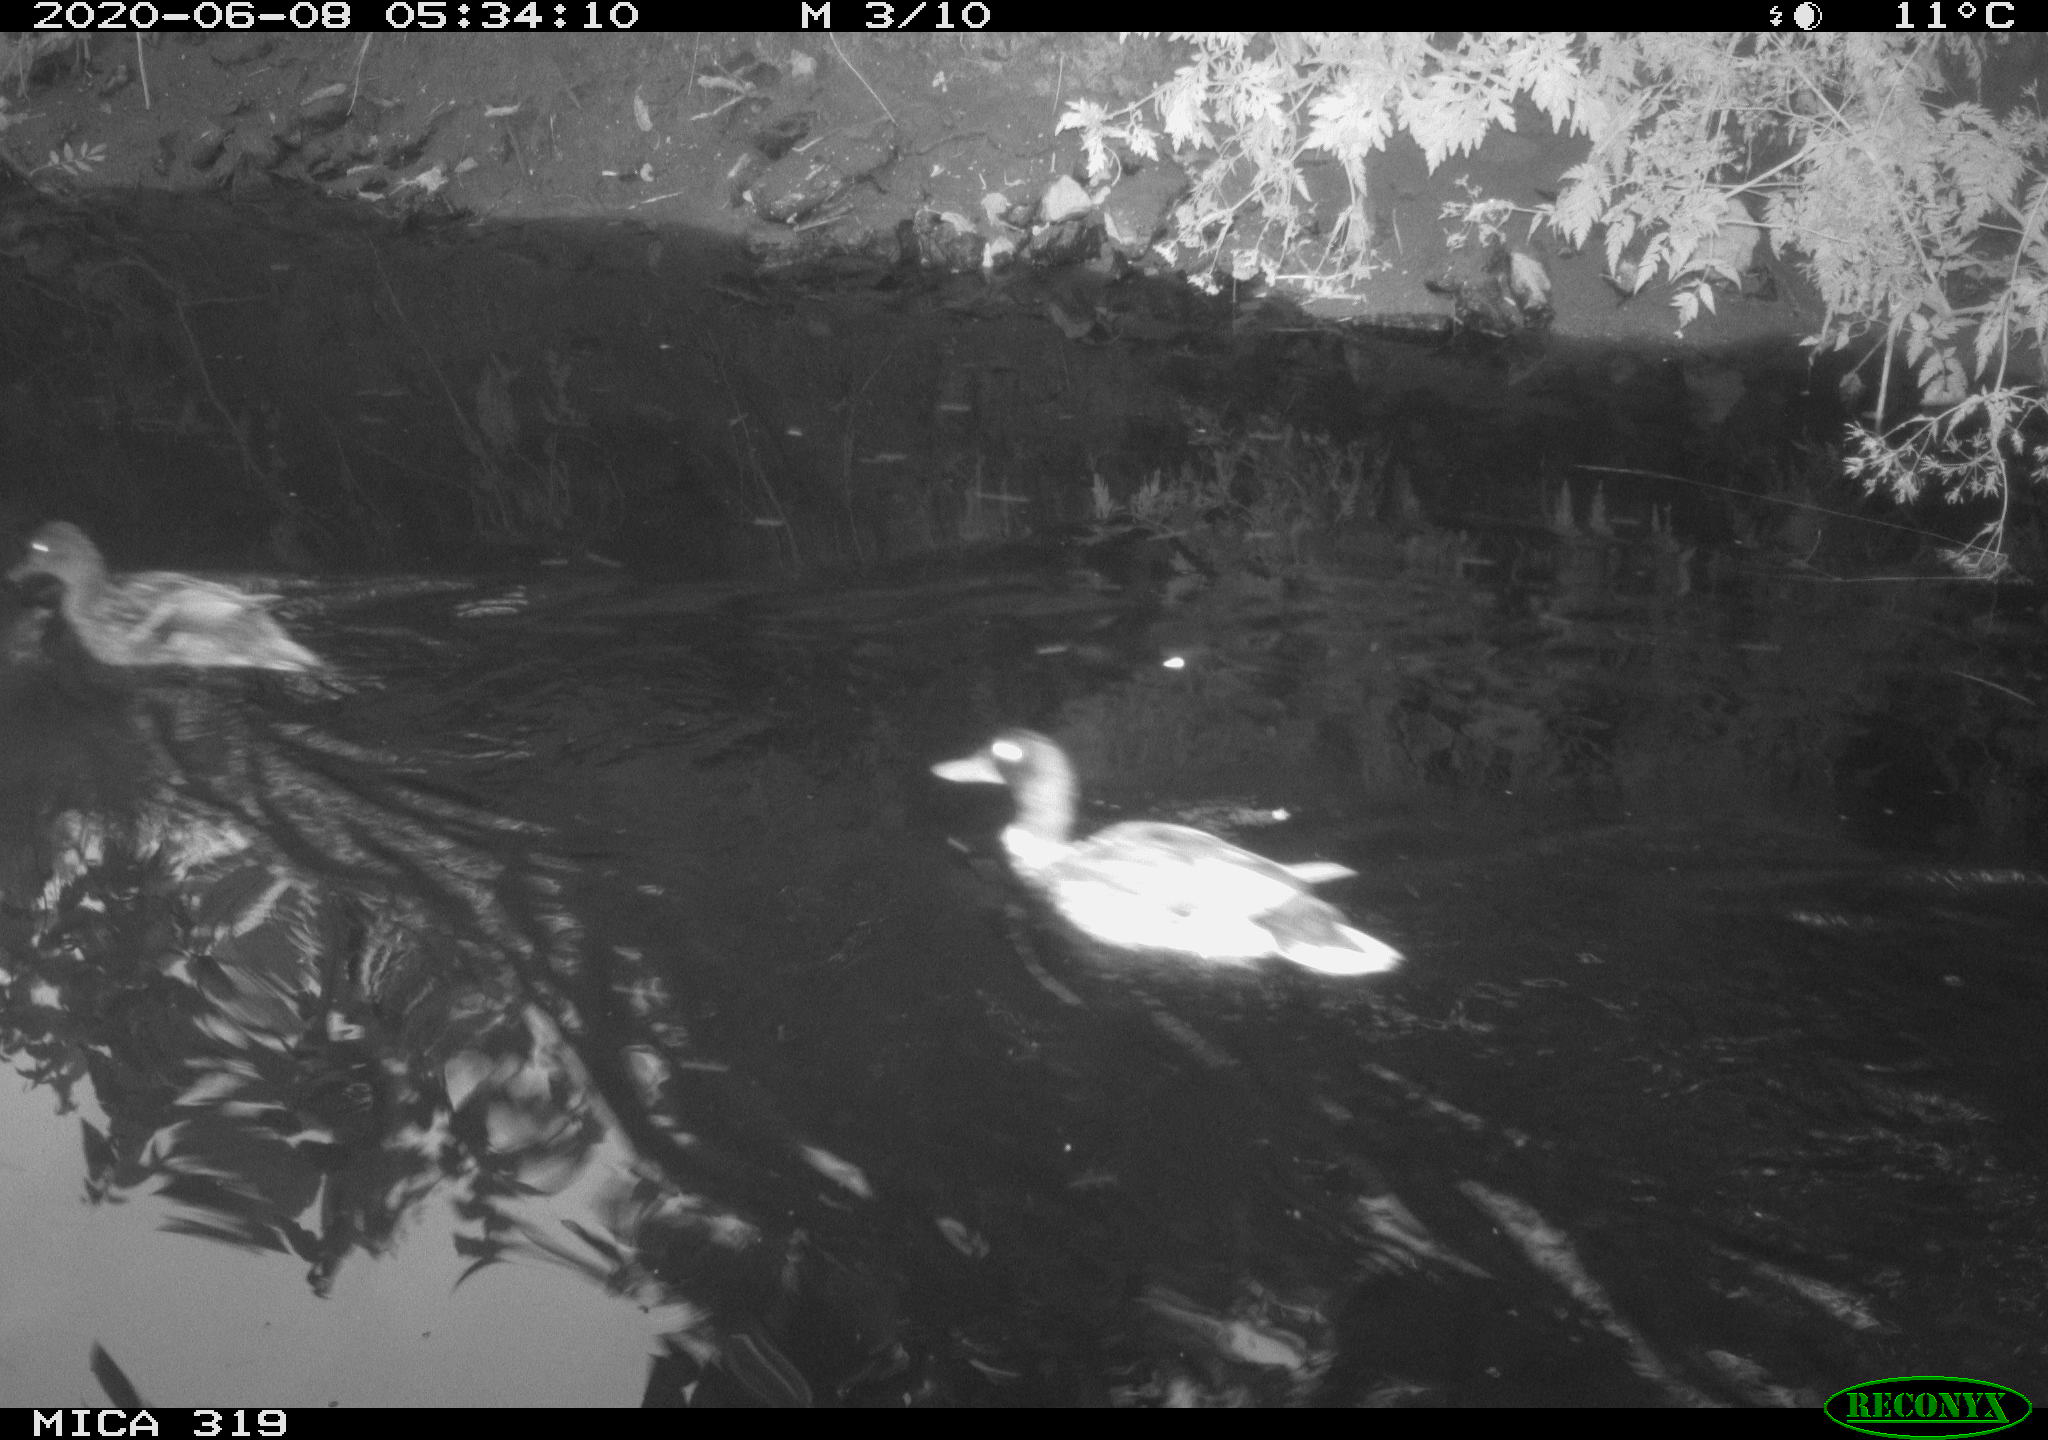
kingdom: Animalia
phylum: Chordata
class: Aves
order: Anseriformes
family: Anatidae
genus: Anas
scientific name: Anas platyrhynchos
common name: Mallard
